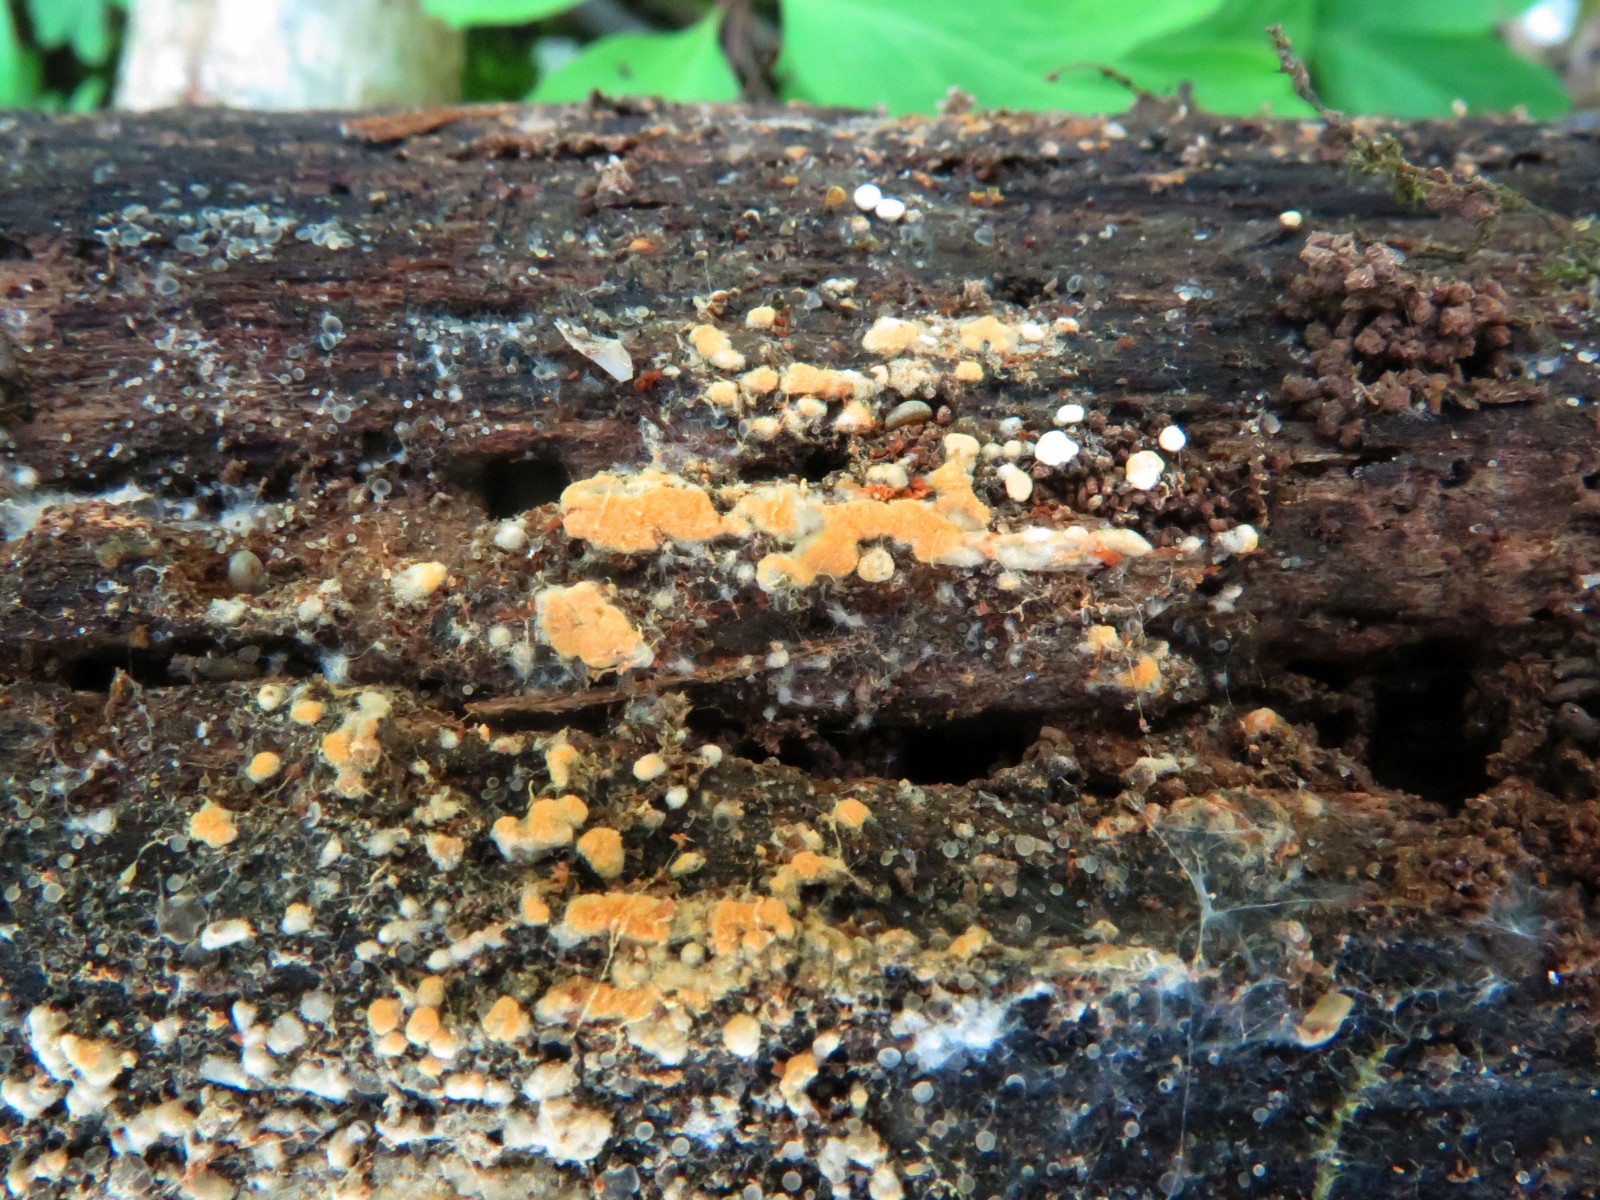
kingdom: Fungi
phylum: Basidiomycota
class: Agaricomycetes
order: Cantharellales
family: Botryobasidiaceae
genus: Botryobasidium
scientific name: Botryobasidium aureum
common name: gylden spindhinde
